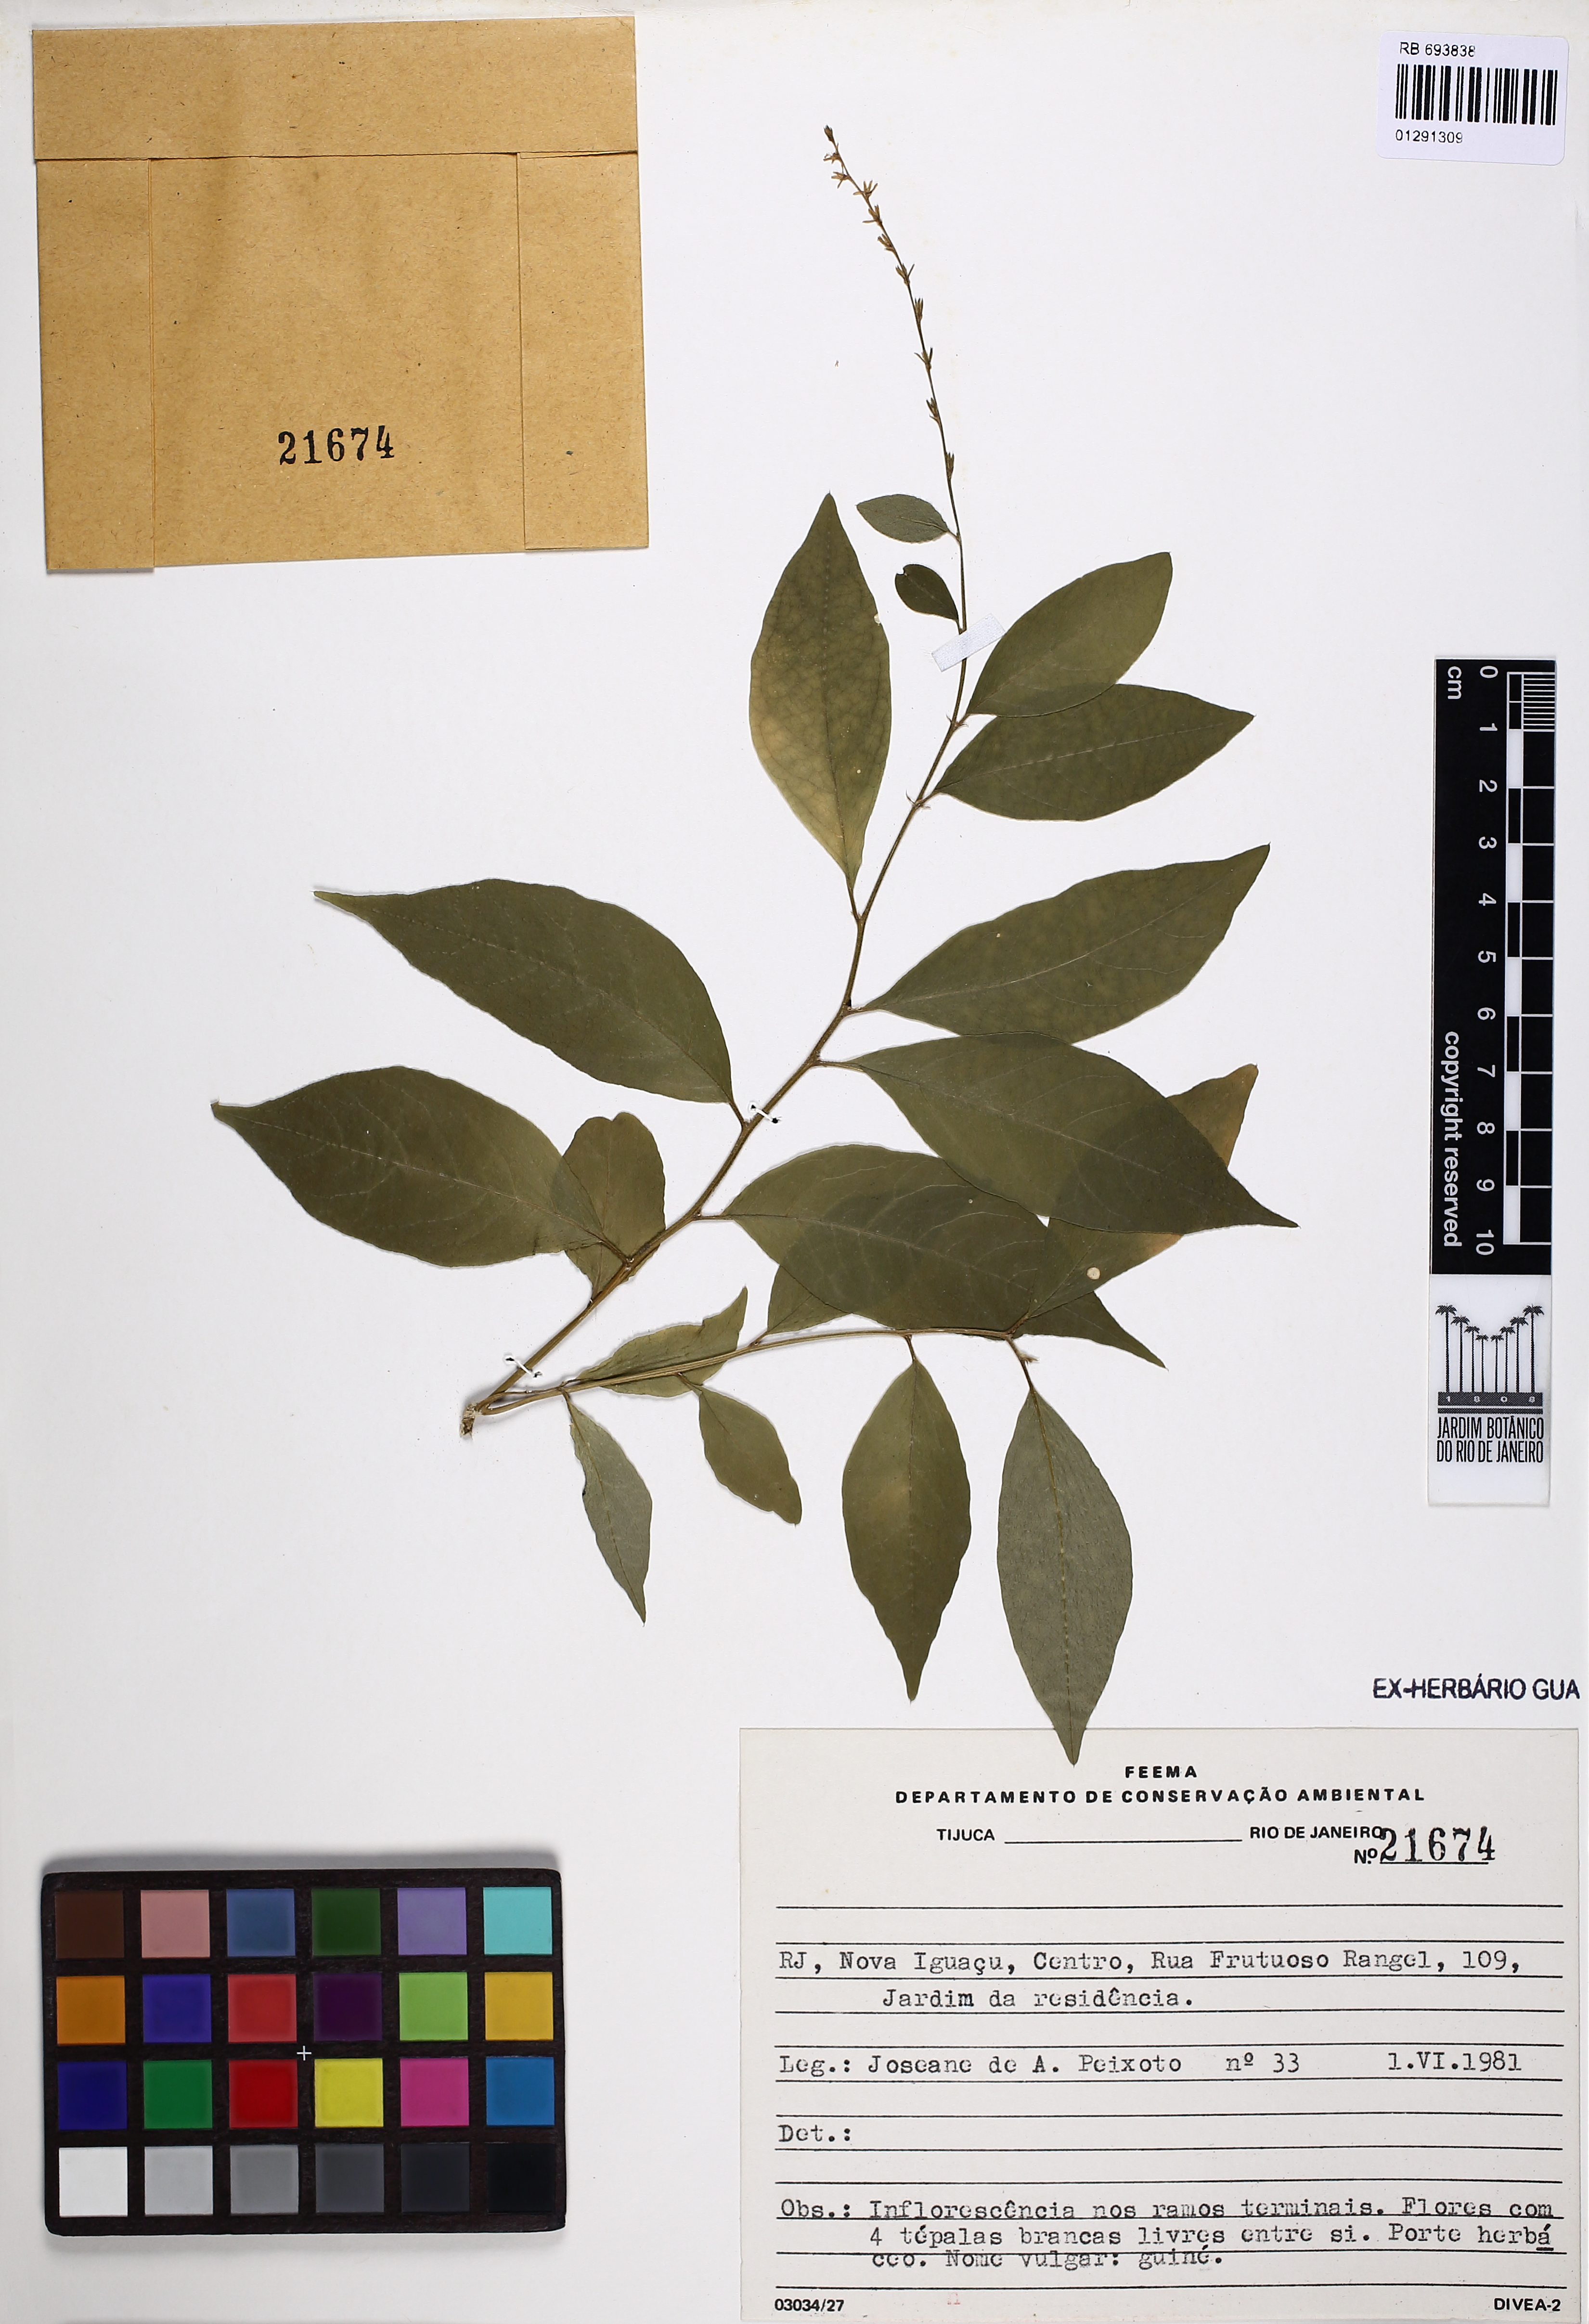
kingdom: Plantae
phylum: Tracheophyta
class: Magnoliopsida
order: Caryophyllales
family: Phytolaccaceae
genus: Petiveria
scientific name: Petiveria
